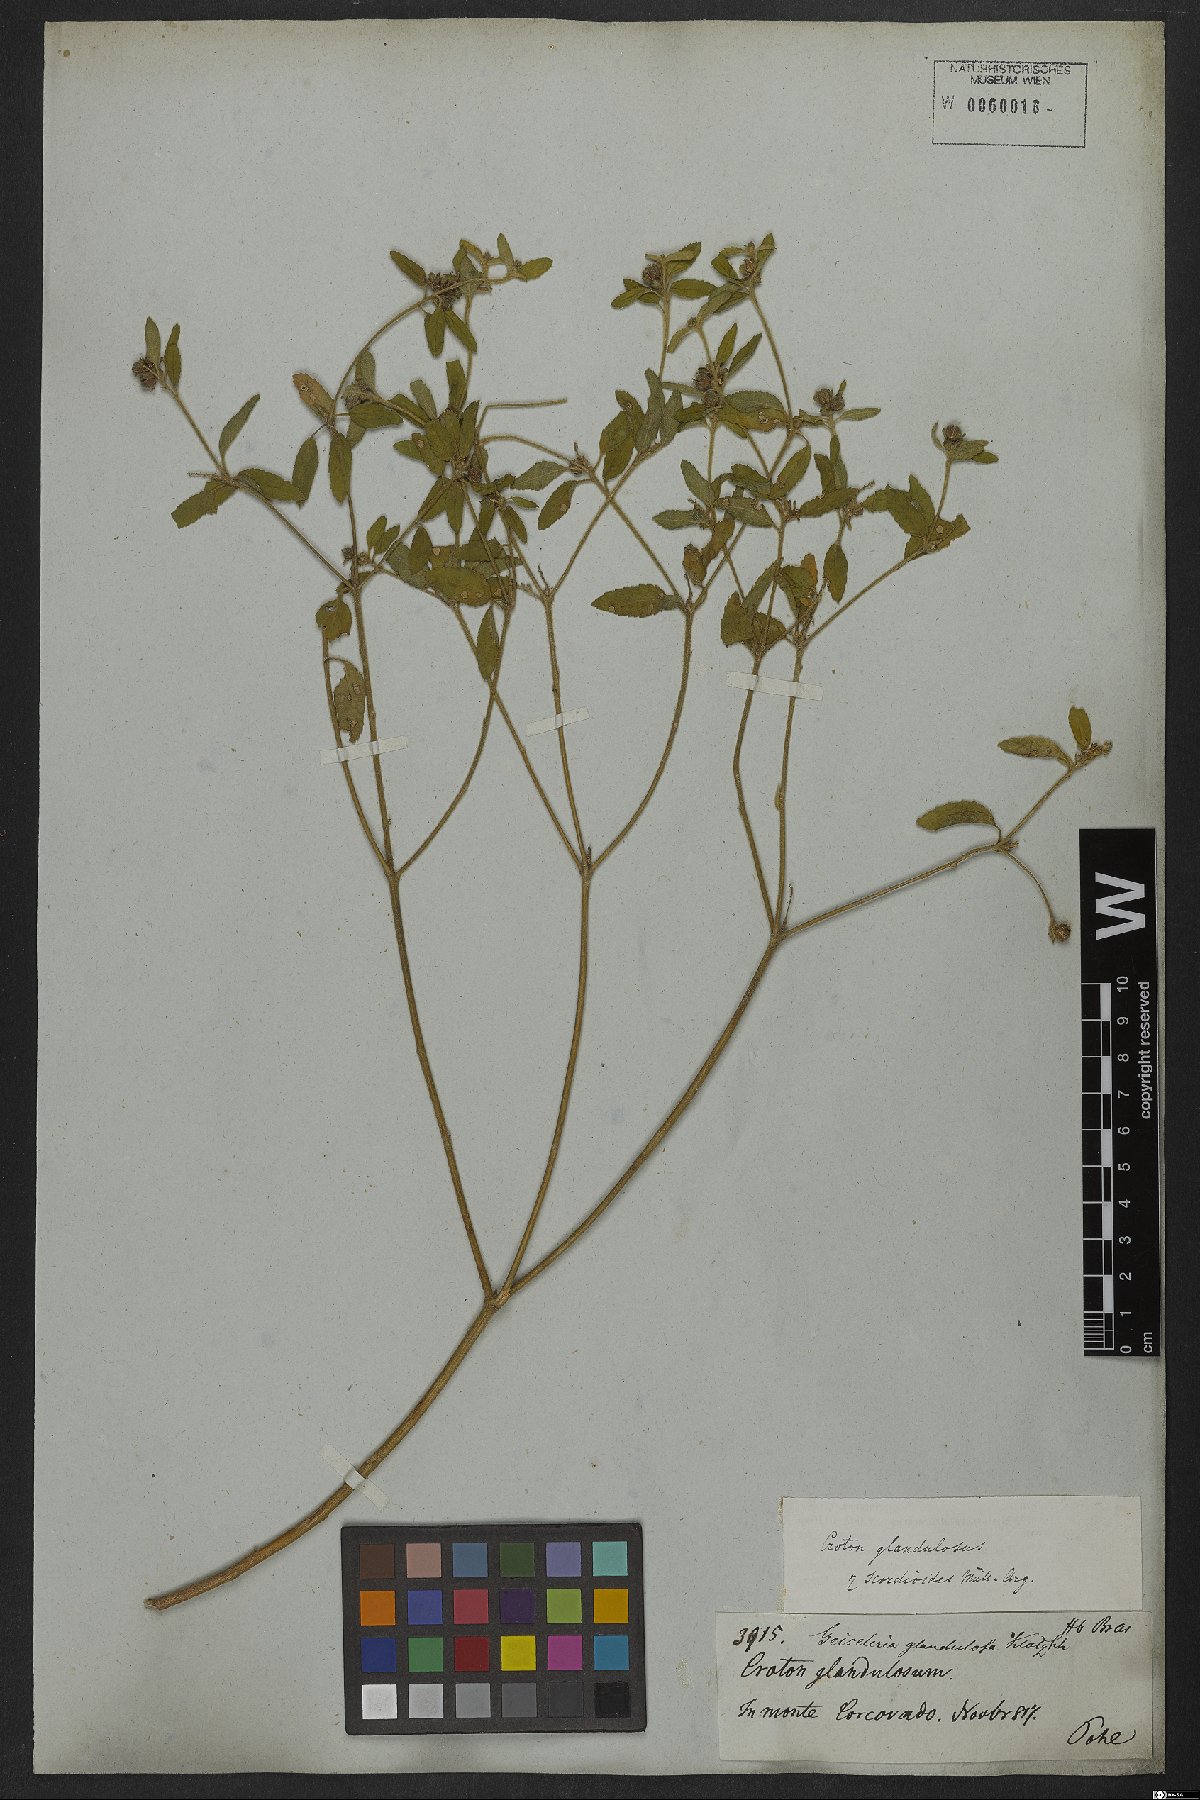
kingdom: Plantae
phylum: Tracheophyta
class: Magnoliopsida
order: Malpighiales
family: Euphorbiaceae
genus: Croton
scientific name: Croton glandulosus
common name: Tropic croton
